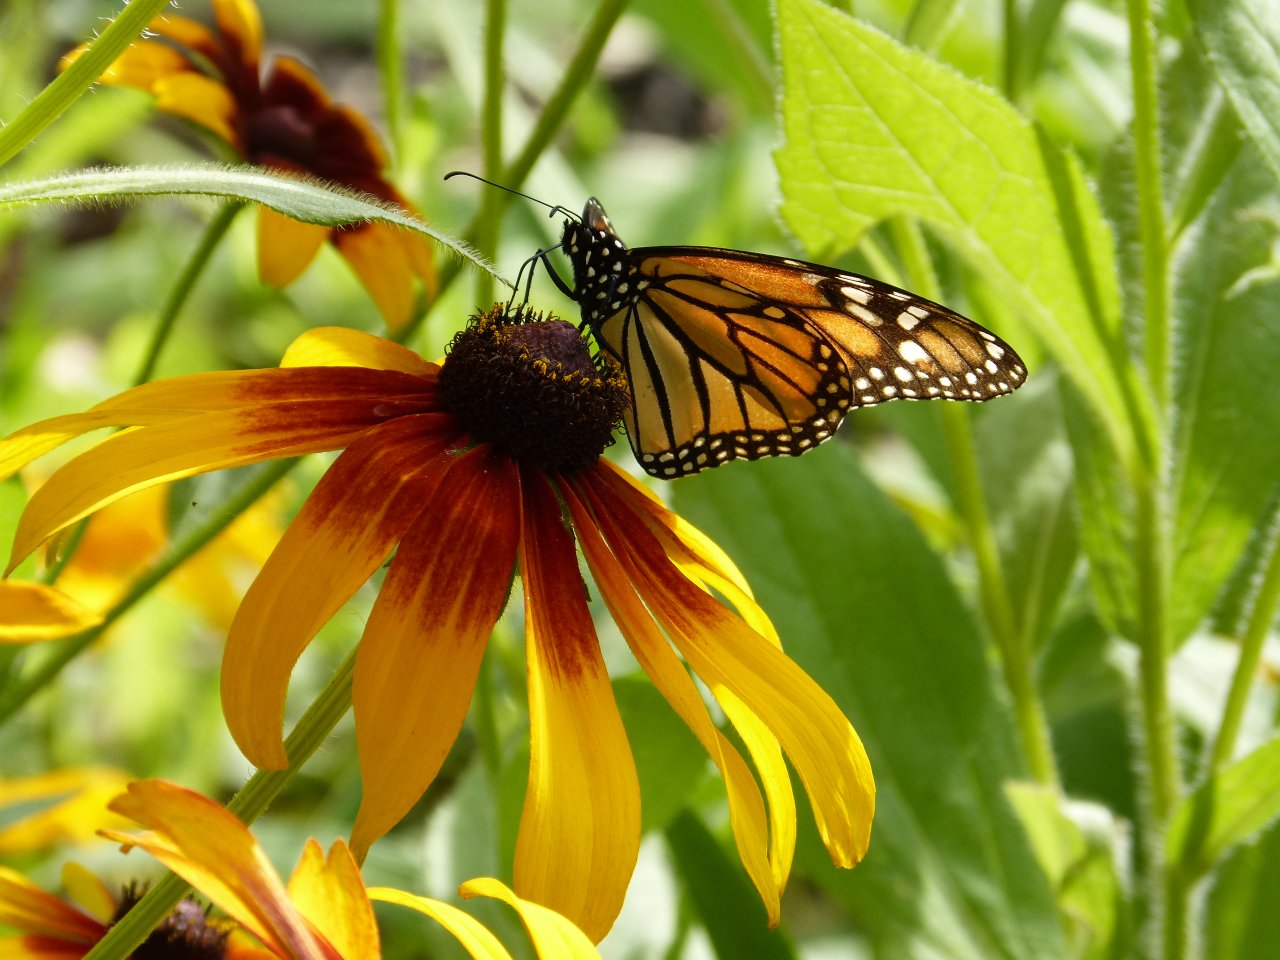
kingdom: Animalia
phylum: Arthropoda
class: Insecta
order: Lepidoptera
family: Nymphalidae
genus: Danaus
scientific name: Danaus plexippus
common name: Monarch
